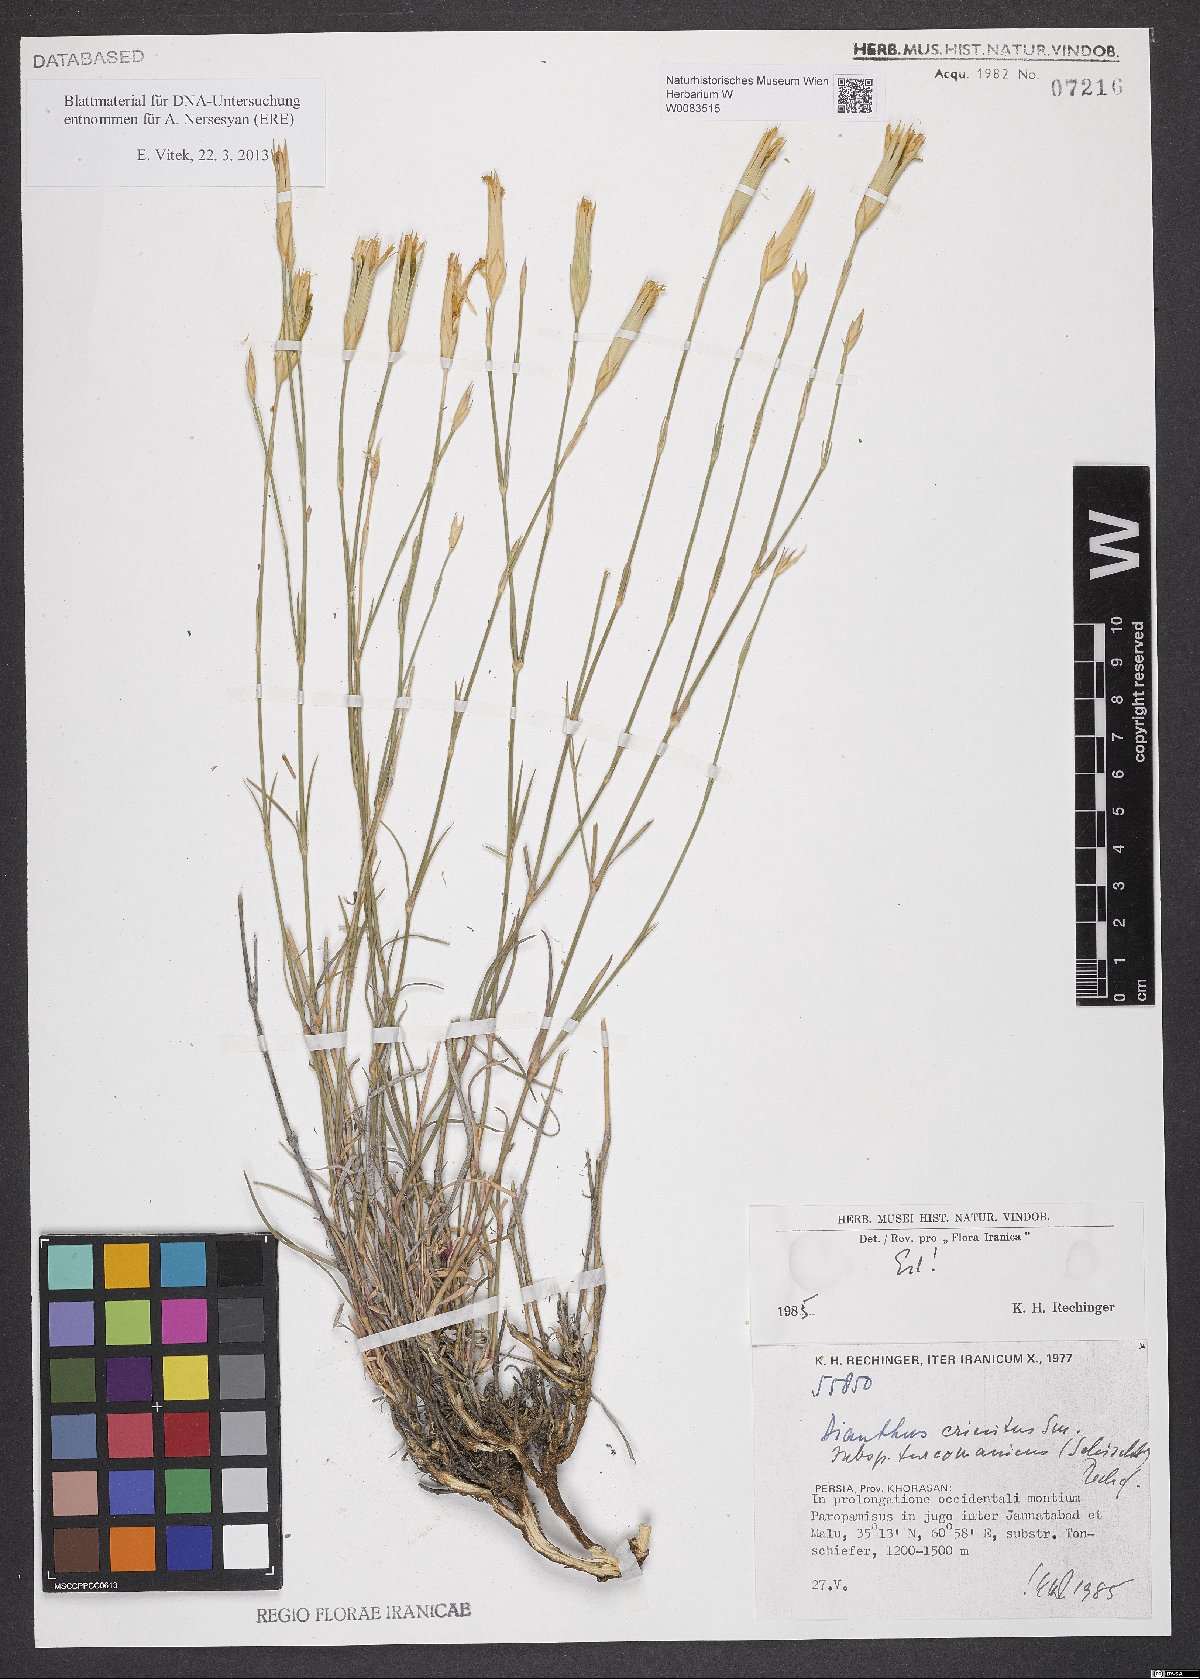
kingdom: Plantae
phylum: Tracheophyta
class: Magnoliopsida
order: Caryophyllales
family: Caryophyllaceae
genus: Dianthus
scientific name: Dianthus turkestanicus
